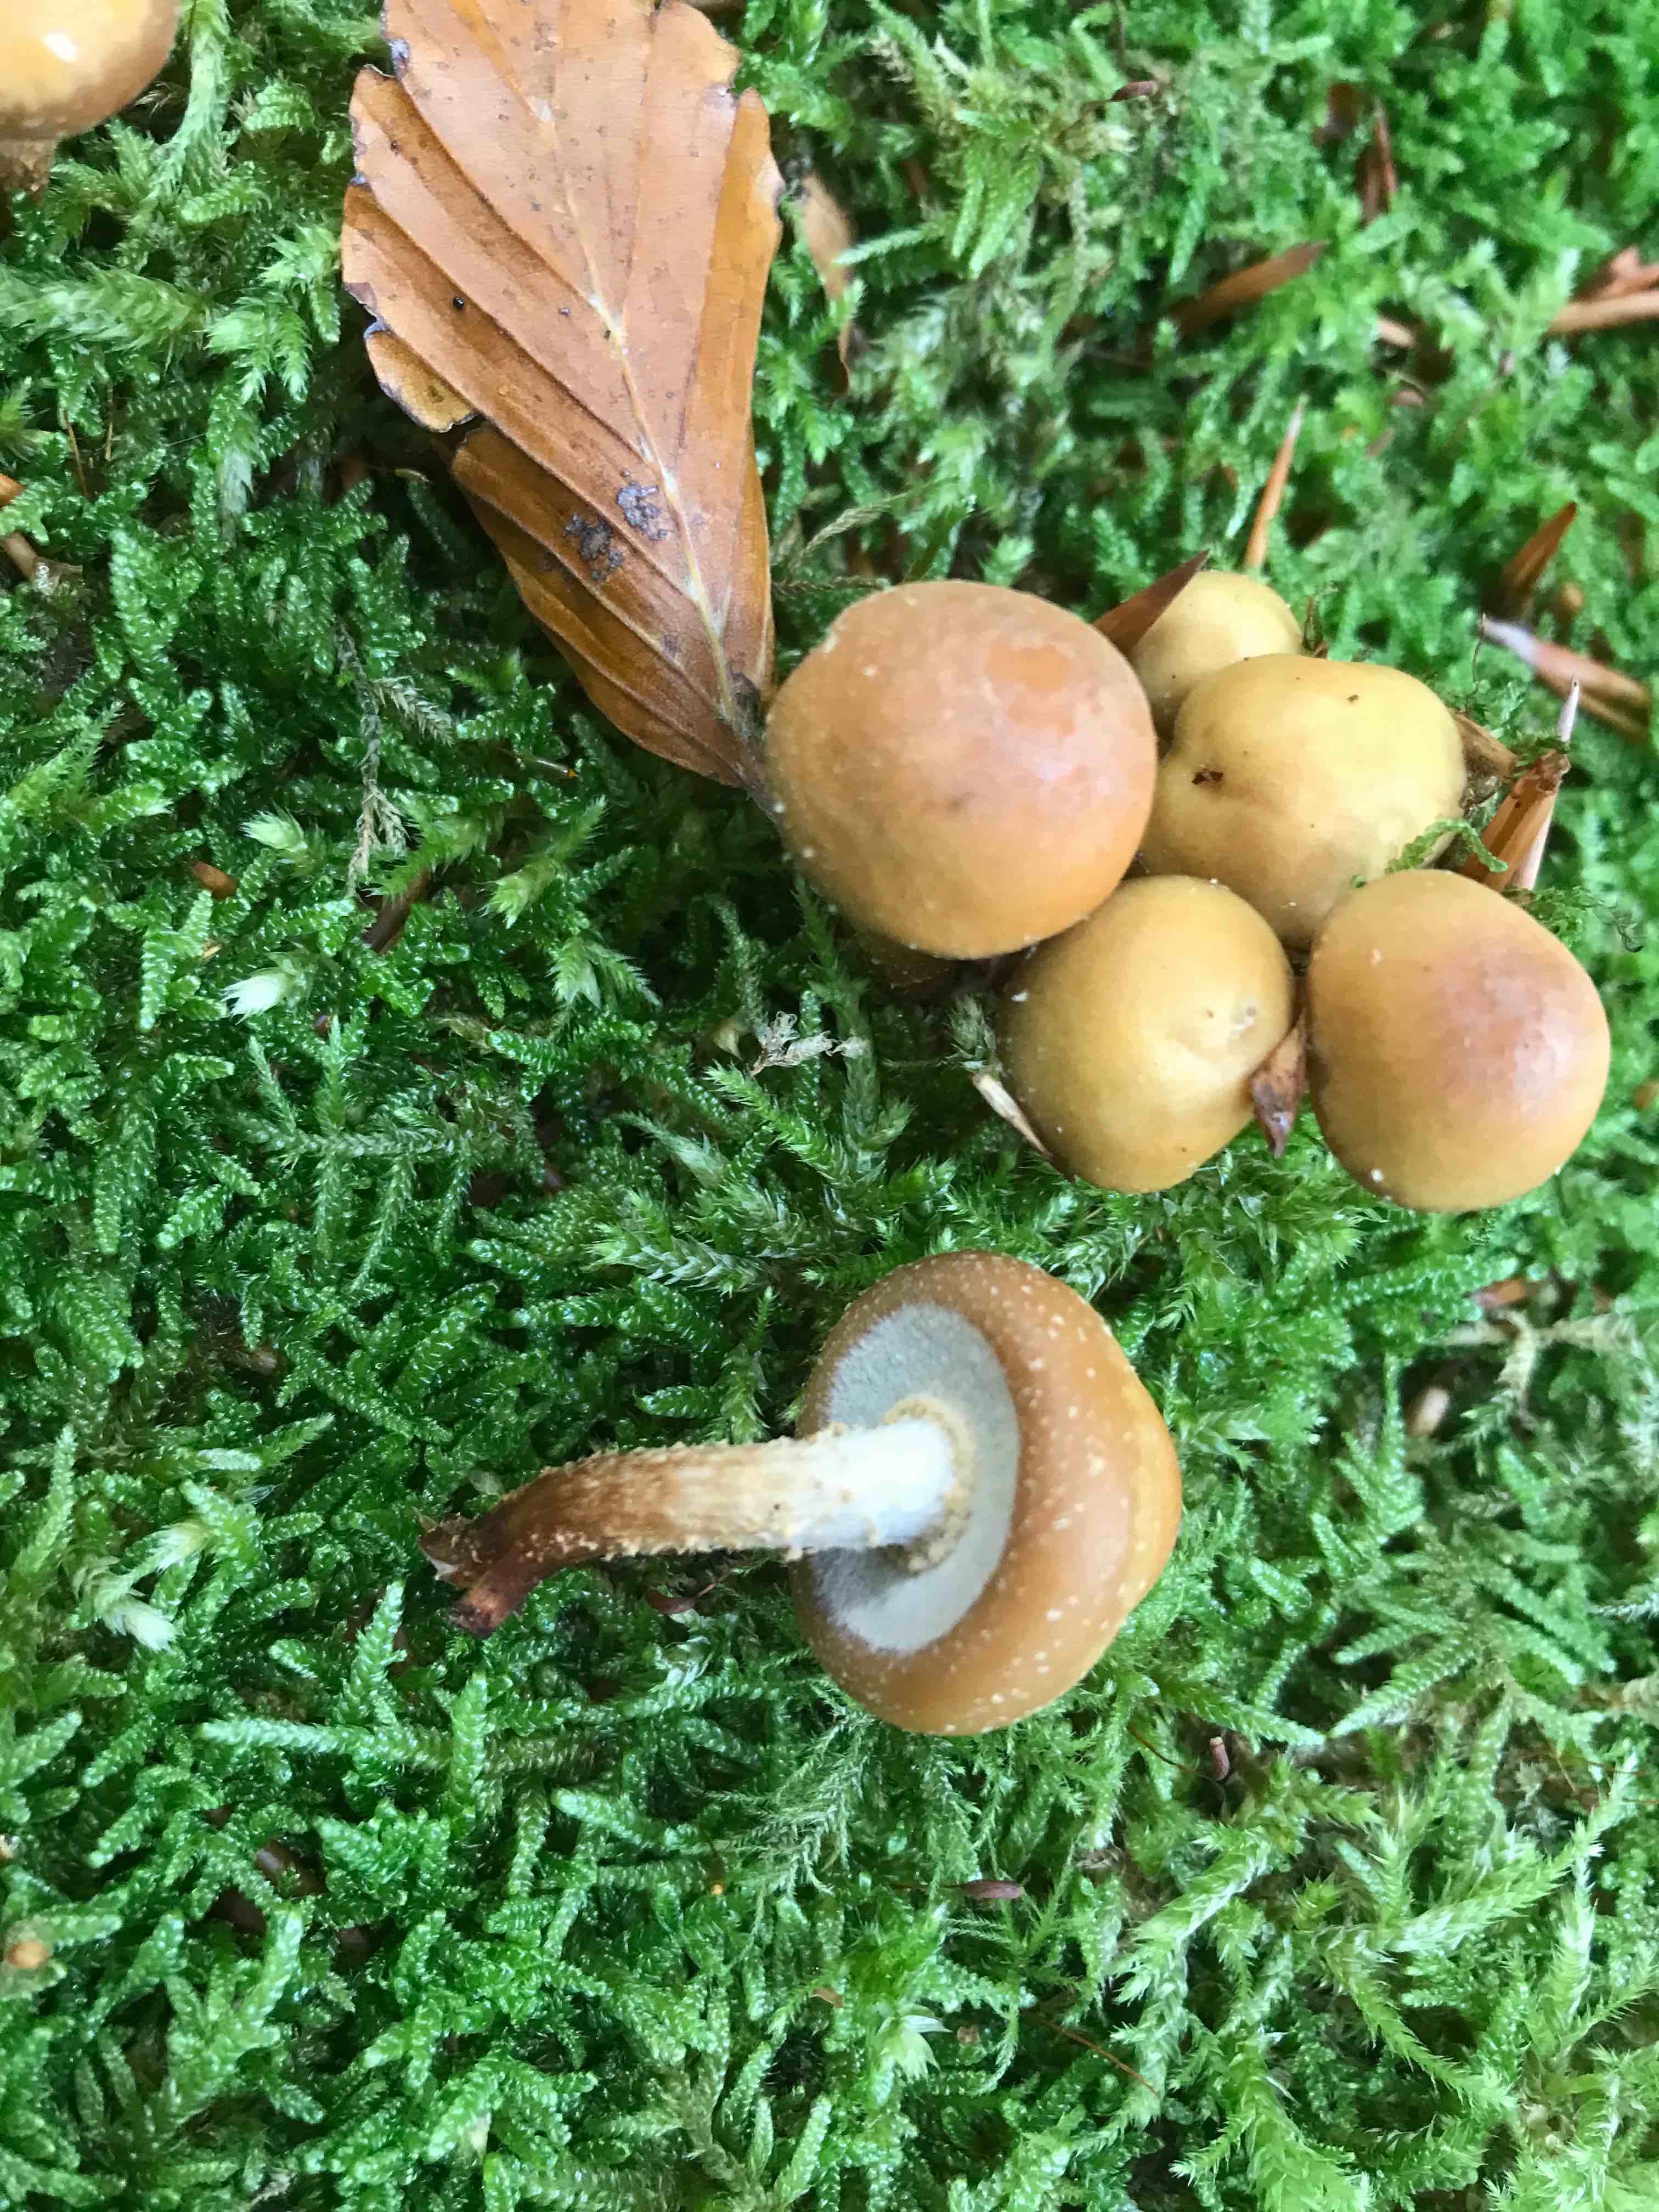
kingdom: Fungi
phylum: Basidiomycota
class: Agaricomycetes
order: Agaricales
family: Strophariaceae
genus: Kuehneromyces
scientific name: Kuehneromyces mutabilis
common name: foranderlig skælhat
